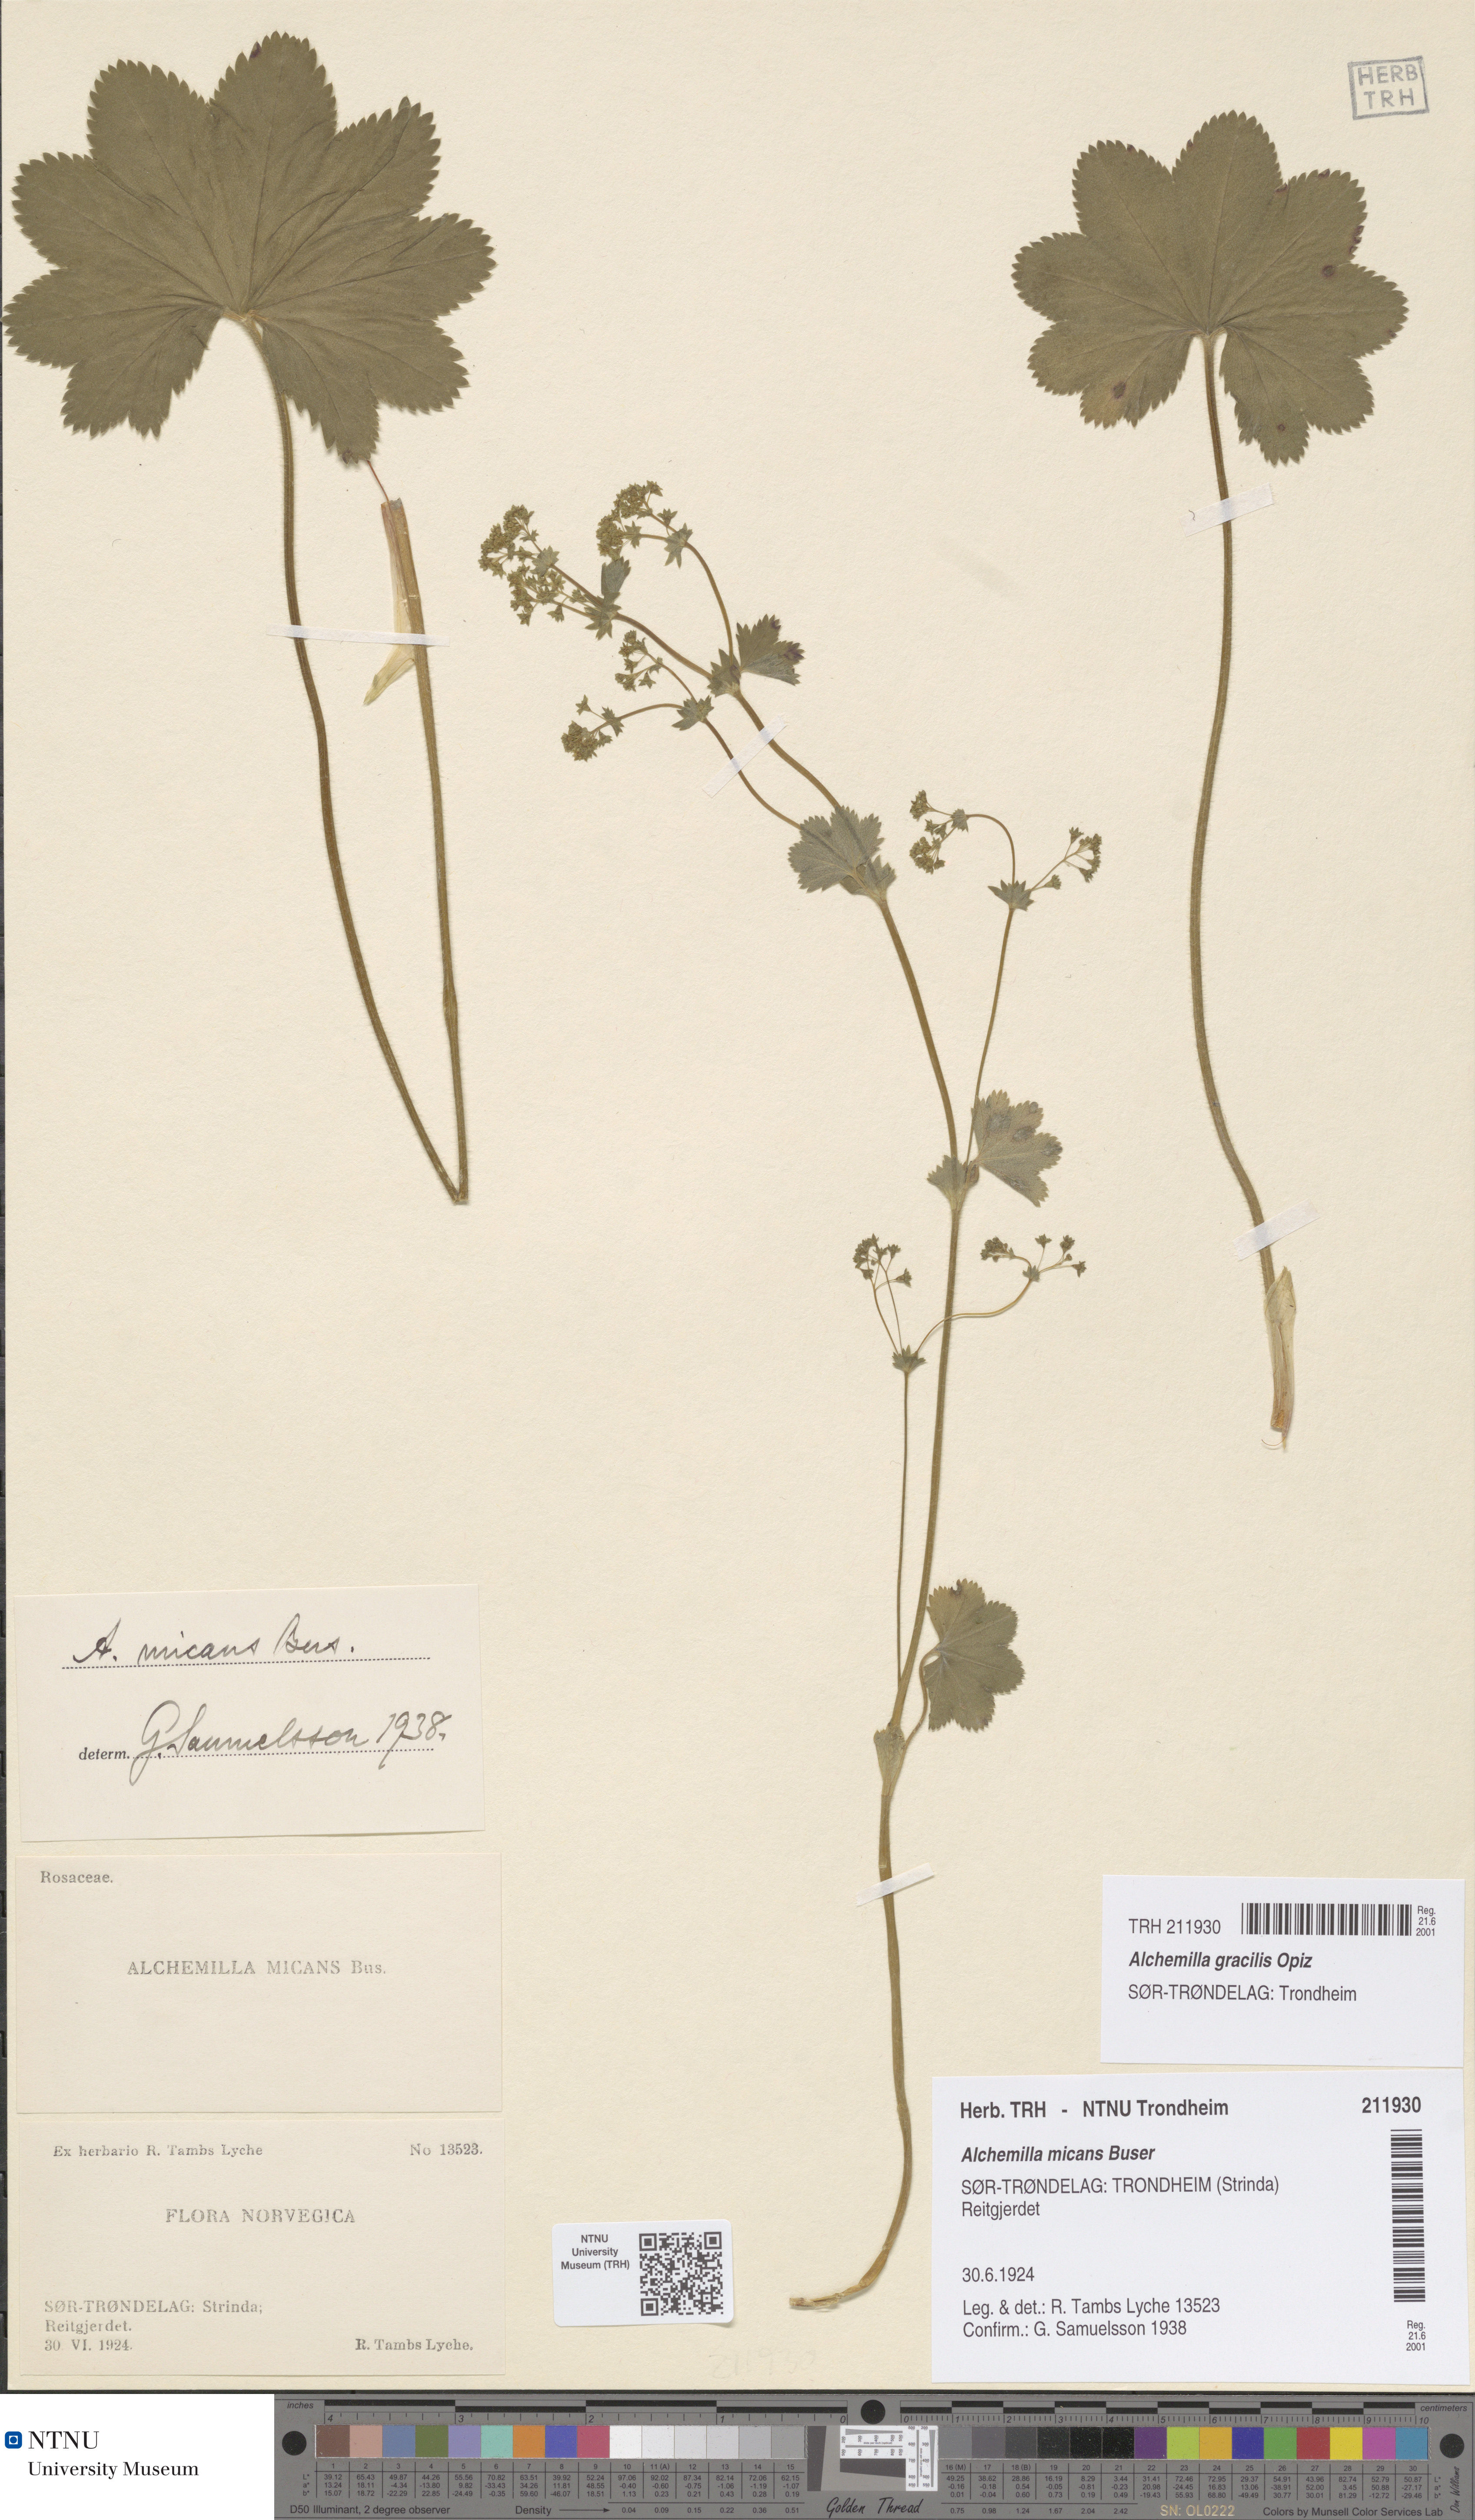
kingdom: Plantae
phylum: Tracheophyta
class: Magnoliopsida
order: Rosales
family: Rosaceae
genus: Alchemilla
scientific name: Alchemilla micans
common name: Gleaming lady's mantle
